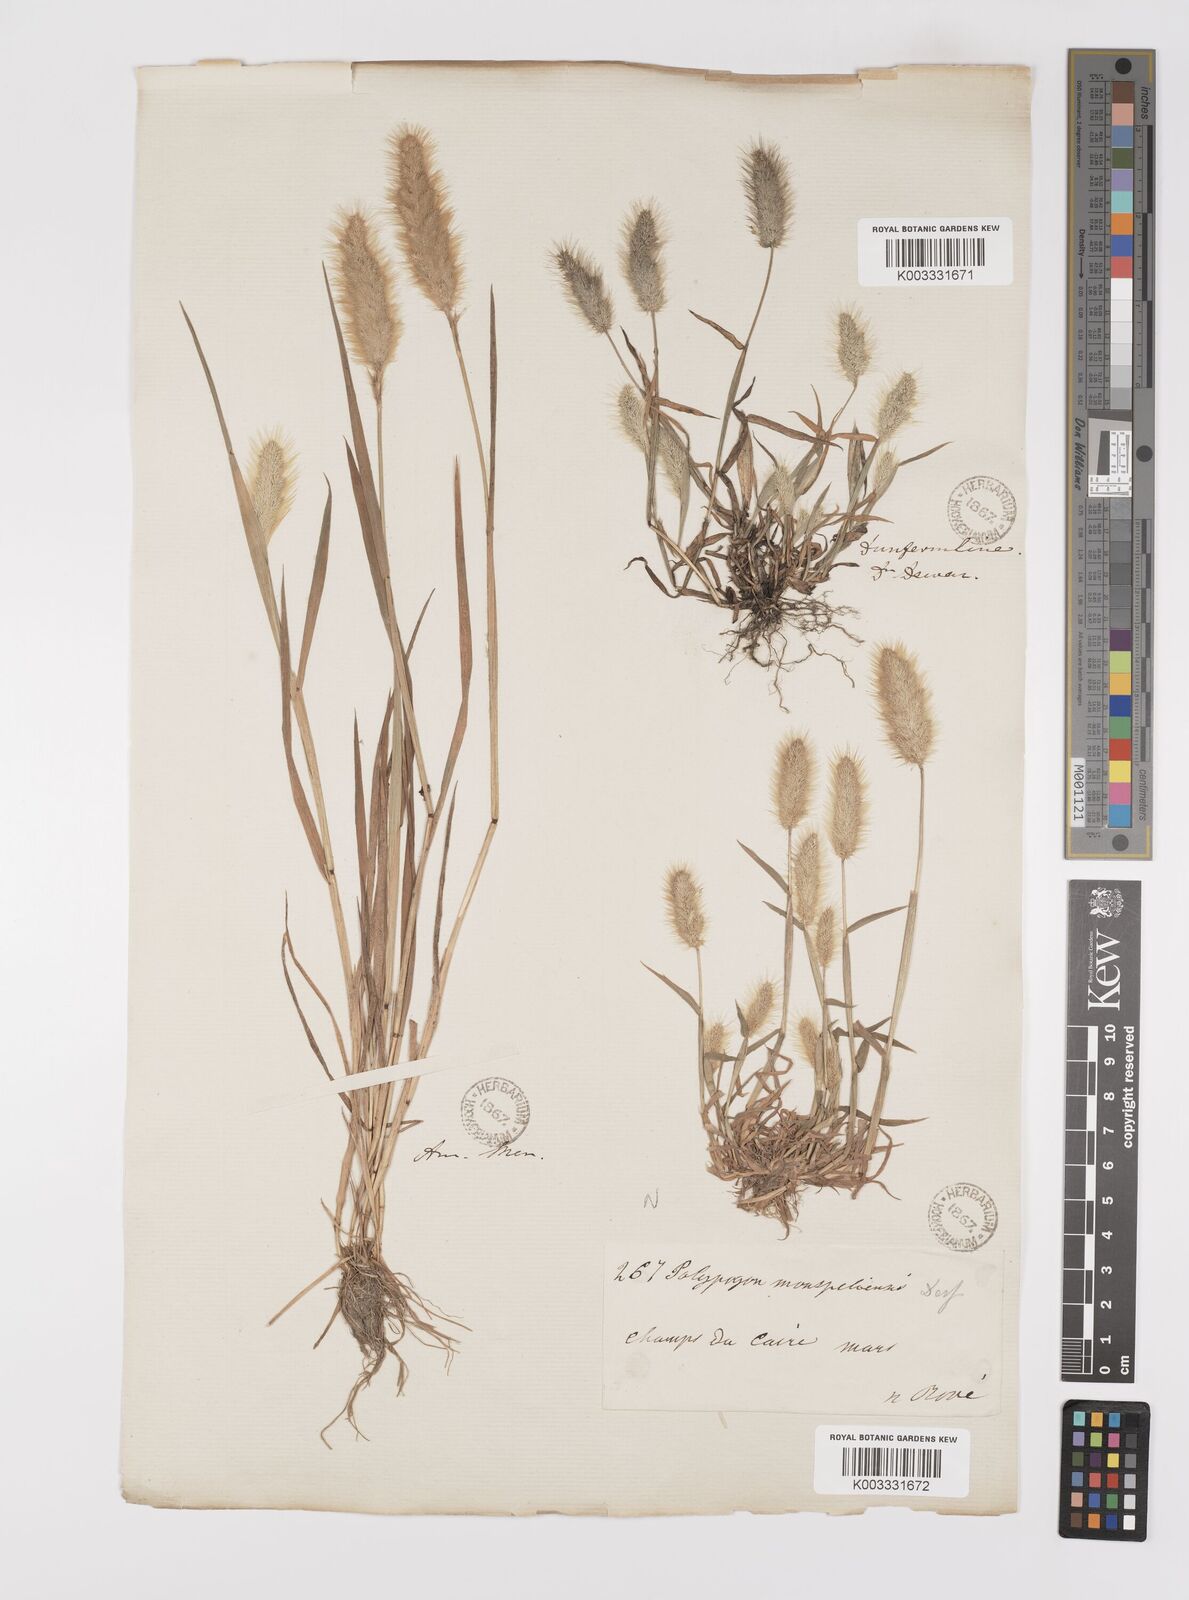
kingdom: Plantae
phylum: Tracheophyta
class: Liliopsida
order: Poales
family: Poaceae
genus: Polypogon
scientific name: Polypogon monspeliensis
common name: Annual rabbitsfoot grass
